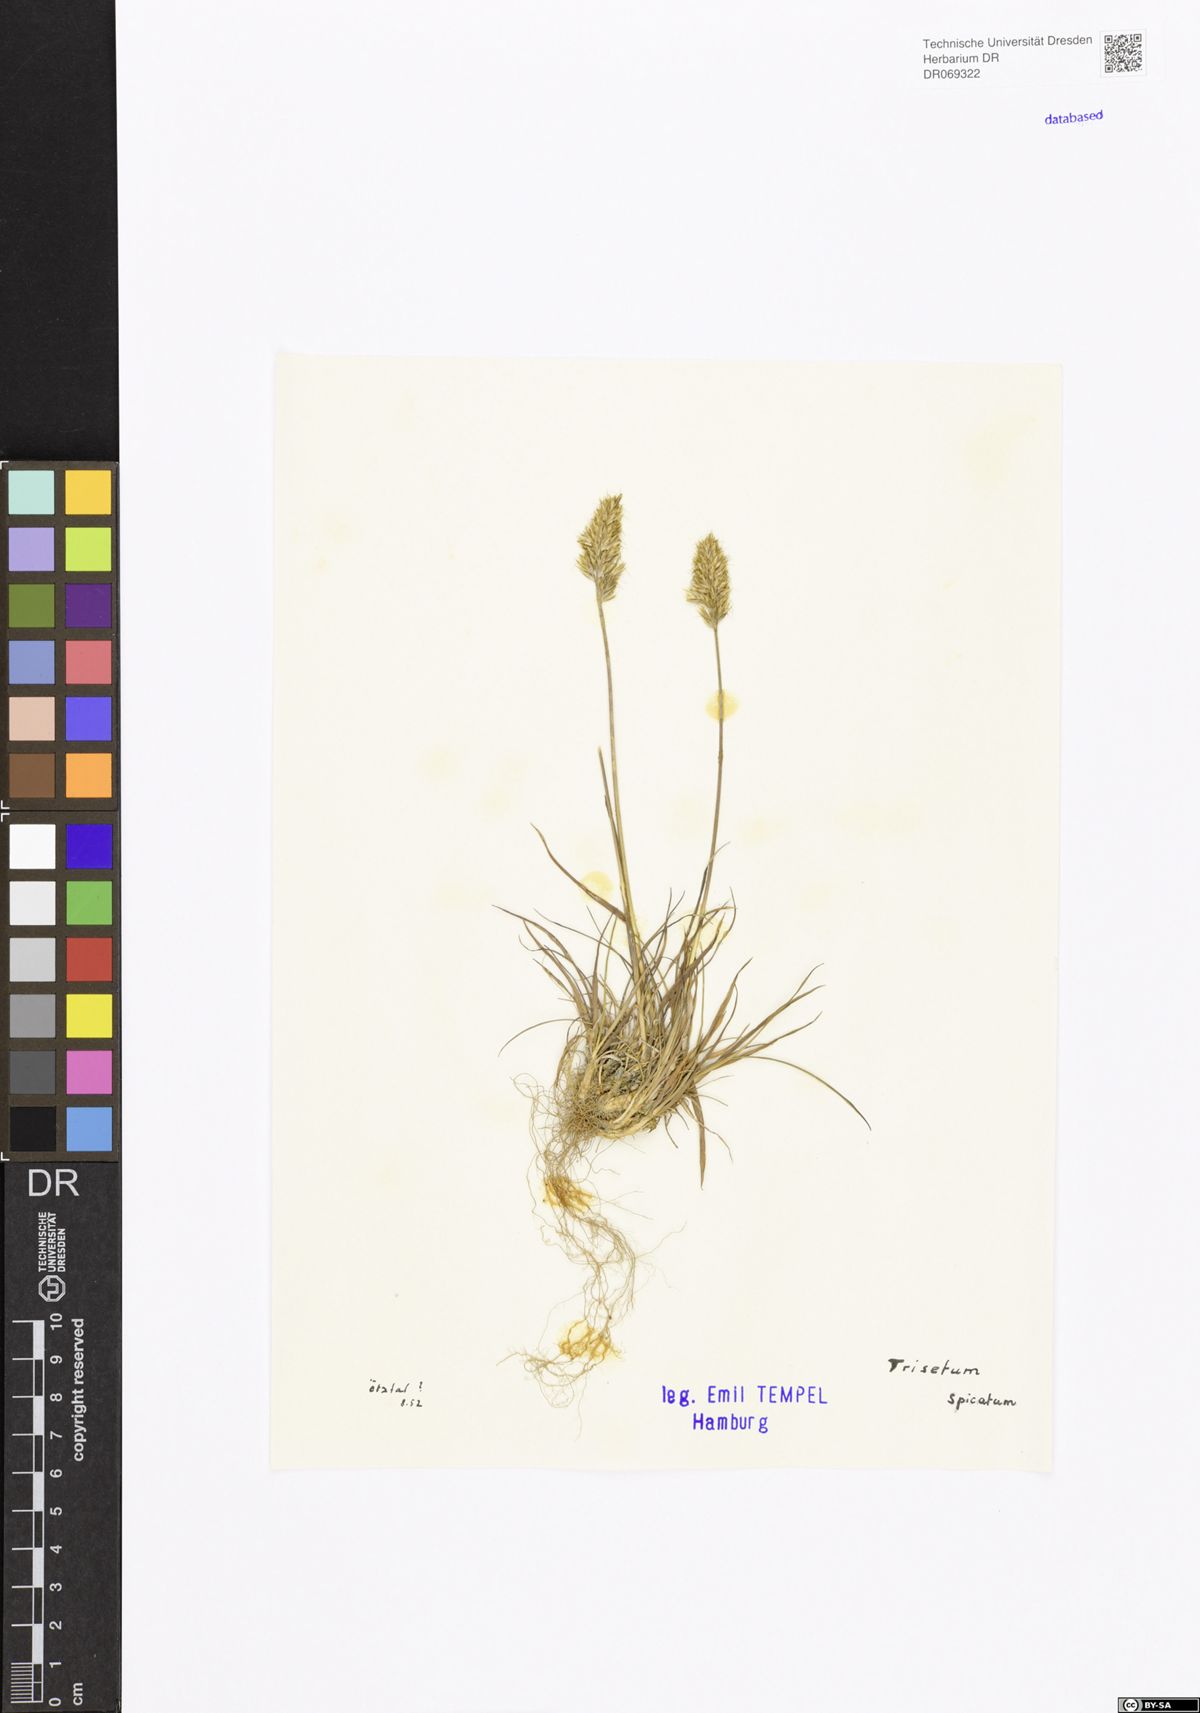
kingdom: Plantae
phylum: Tracheophyta
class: Liliopsida
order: Poales
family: Poaceae
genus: Koeleria
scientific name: Koeleria spicata
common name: Mountain trisetum
